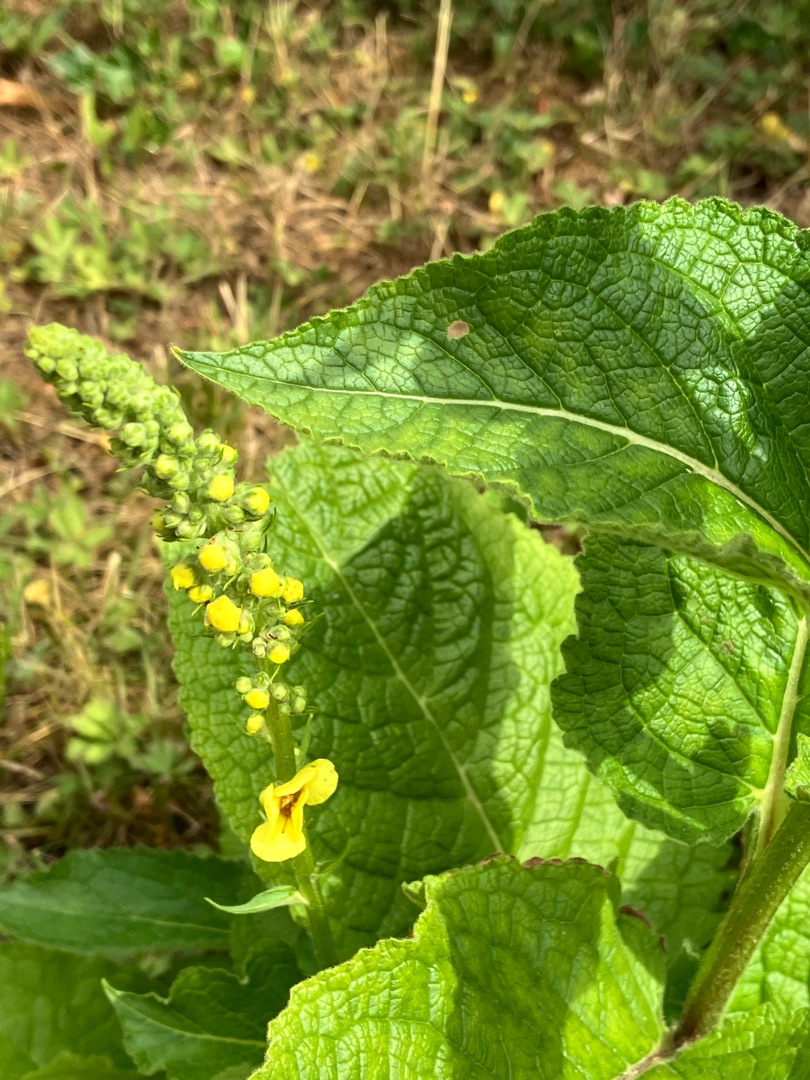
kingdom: Plantae
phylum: Tracheophyta
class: Magnoliopsida
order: Lamiales
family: Scrophulariaceae
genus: Verbascum
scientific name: Verbascum nigrum
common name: Mørk kongelys
